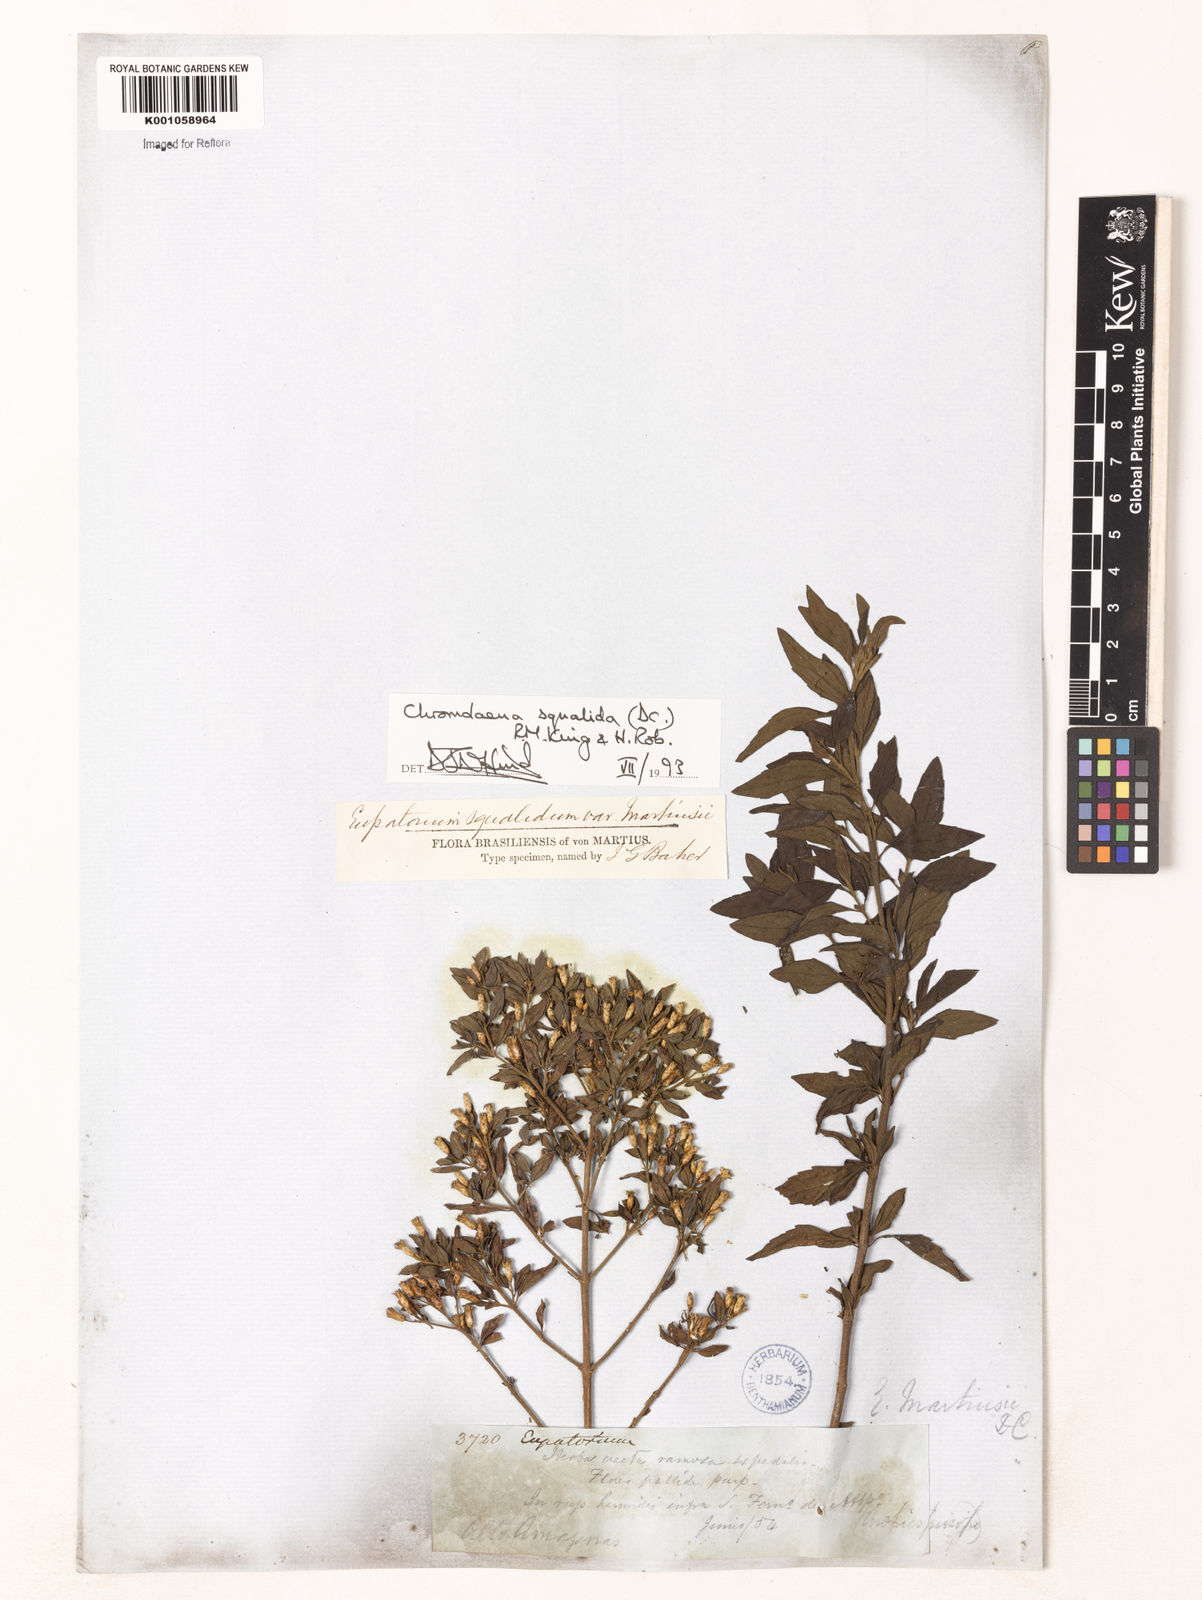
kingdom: Plantae
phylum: Tracheophyta
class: Magnoliopsida
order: Asterales
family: Asteraceae
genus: Chromolaena
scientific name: Chromolaena squalida
